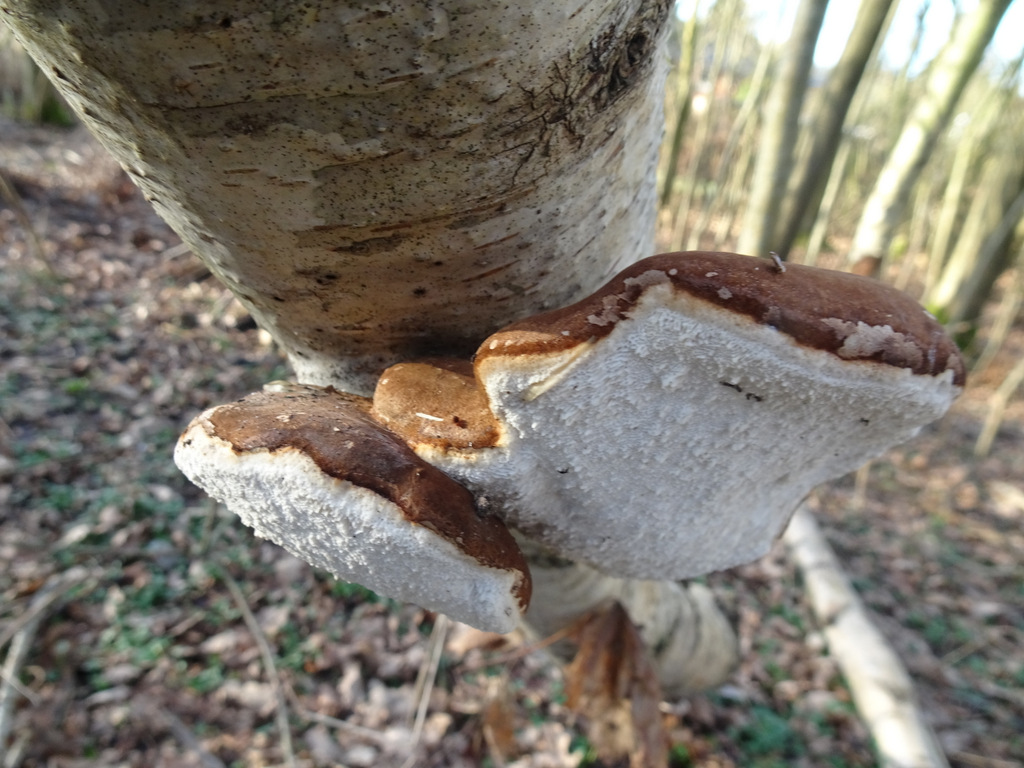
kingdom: Fungi
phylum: Basidiomycota
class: Agaricomycetes
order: Polyporales
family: Fomitopsidaceae
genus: Fomitopsis
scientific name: Fomitopsis betulina
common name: birkeporesvamp
